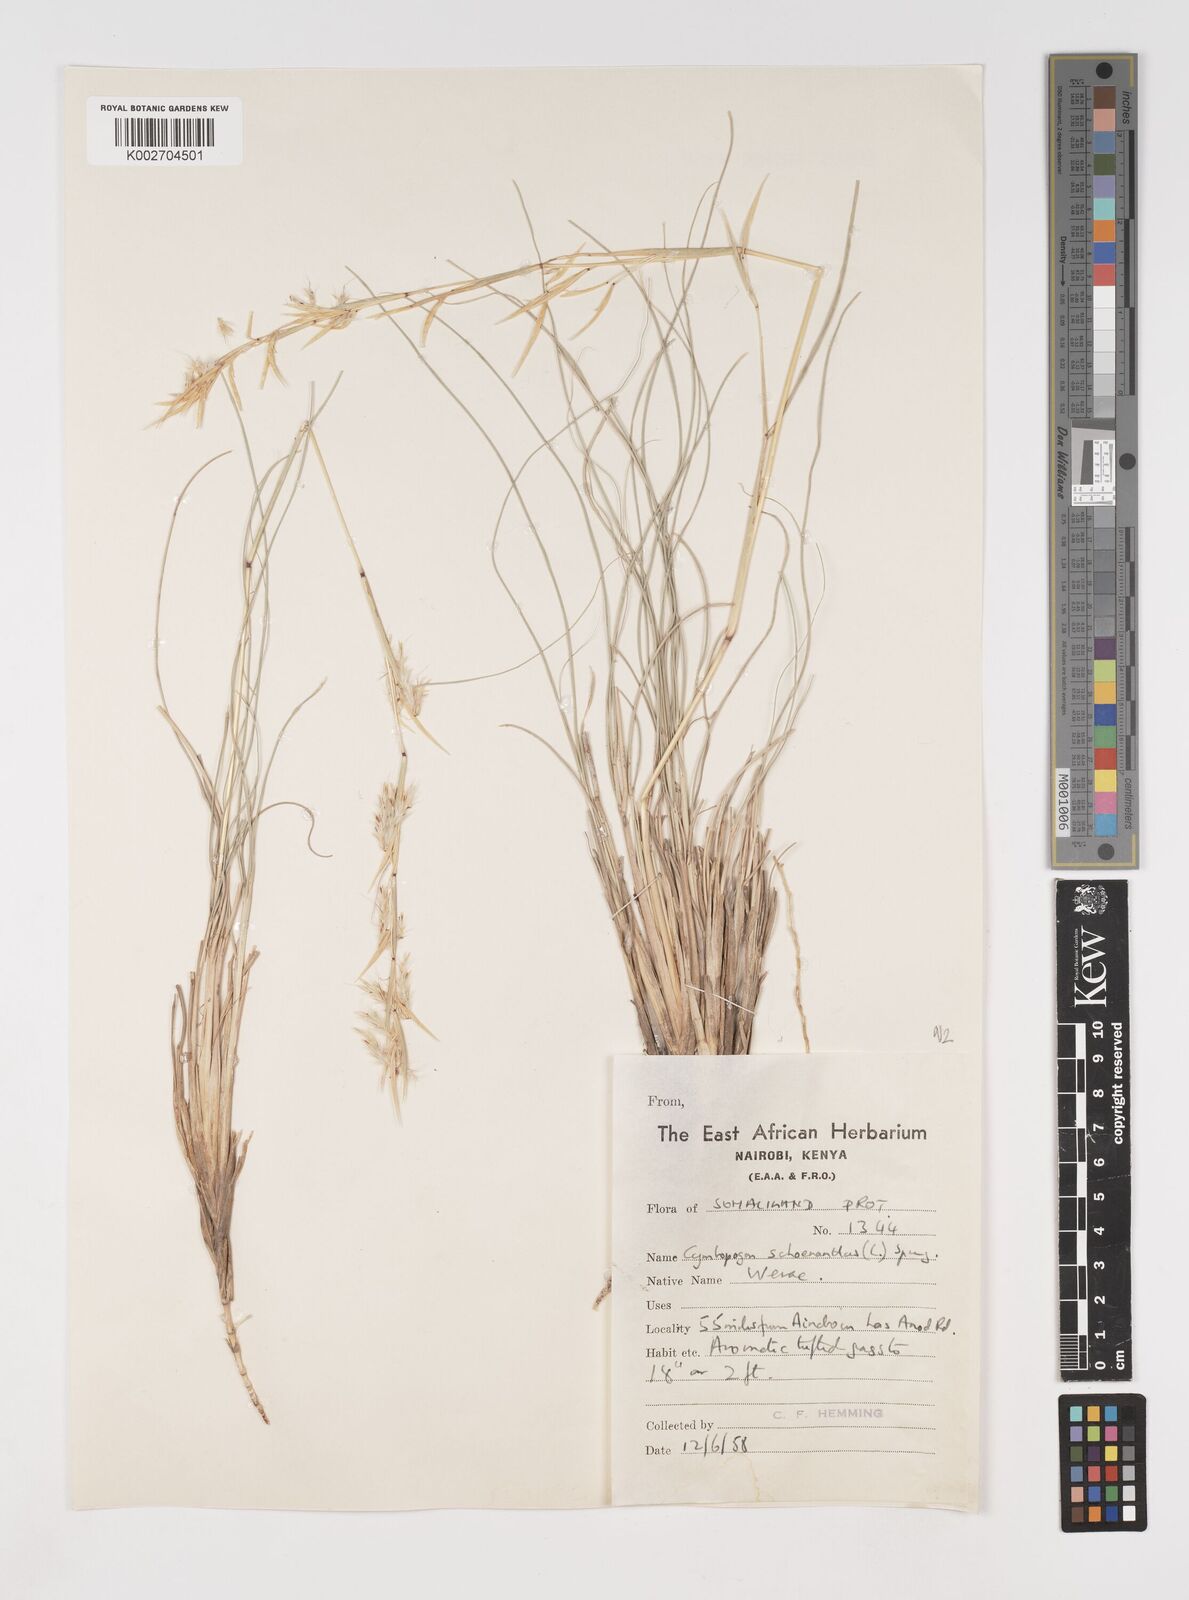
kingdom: Plantae
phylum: Tracheophyta
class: Liliopsida
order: Poales
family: Poaceae
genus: Cymbopogon
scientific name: Cymbopogon schoenanthus
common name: Geranium grass
